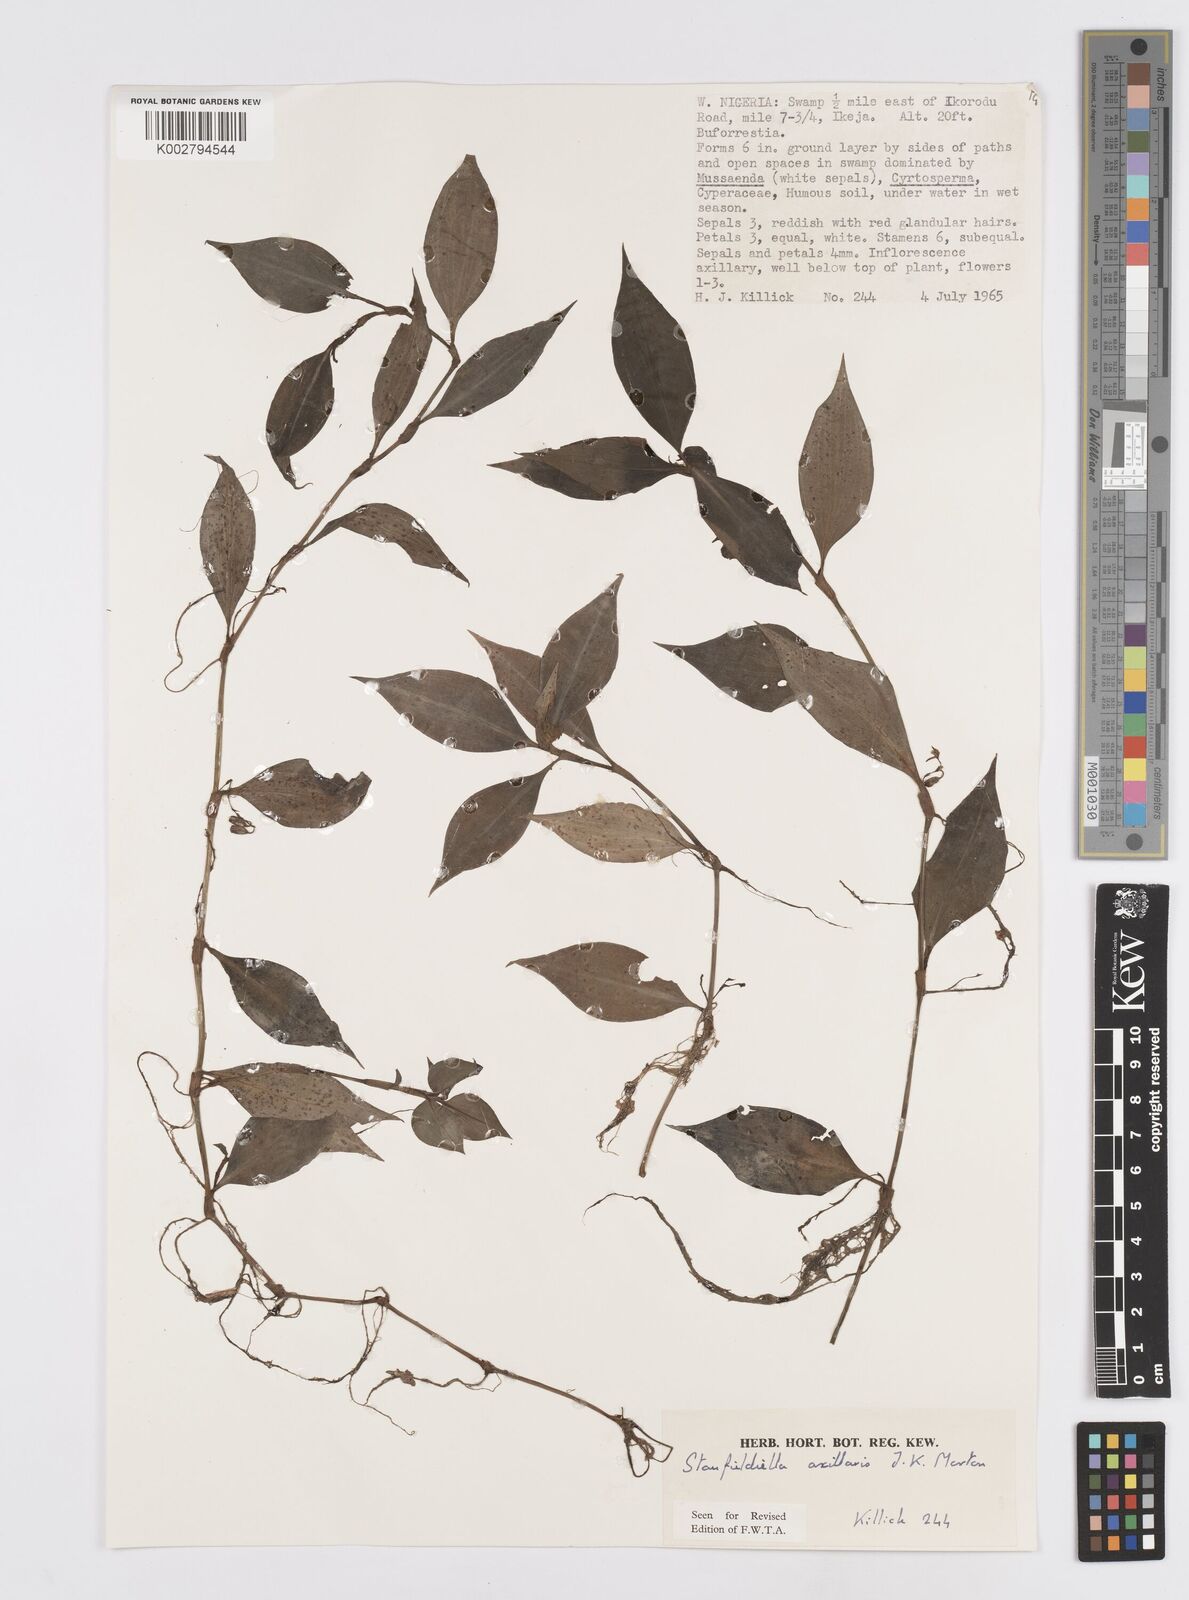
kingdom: Plantae
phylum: Tracheophyta
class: Liliopsida
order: Commelinales
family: Commelinaceae
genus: Stanfieldiella
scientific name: Stanfieldiella axillaris
